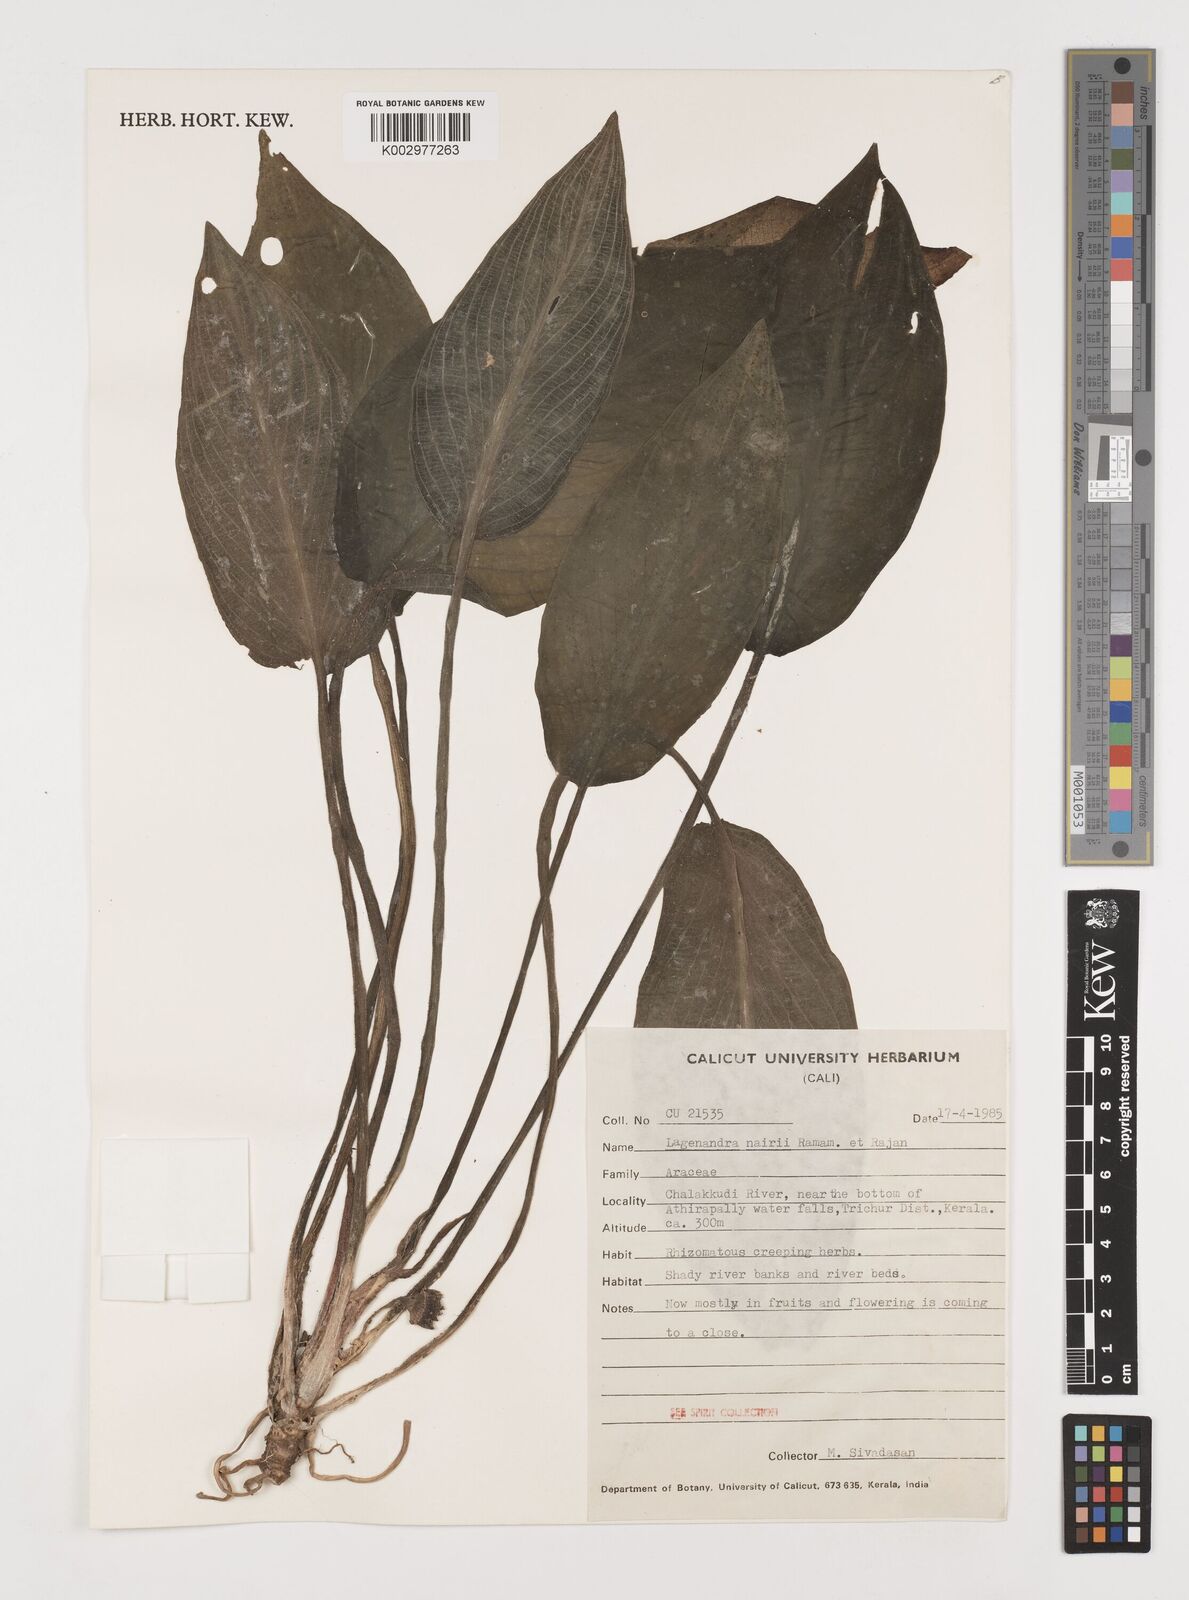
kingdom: Plantae
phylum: Tracheophyta
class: Liliopsida
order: Alismatales
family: Araceae
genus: Lagenandra
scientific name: Lagenandra nairii
